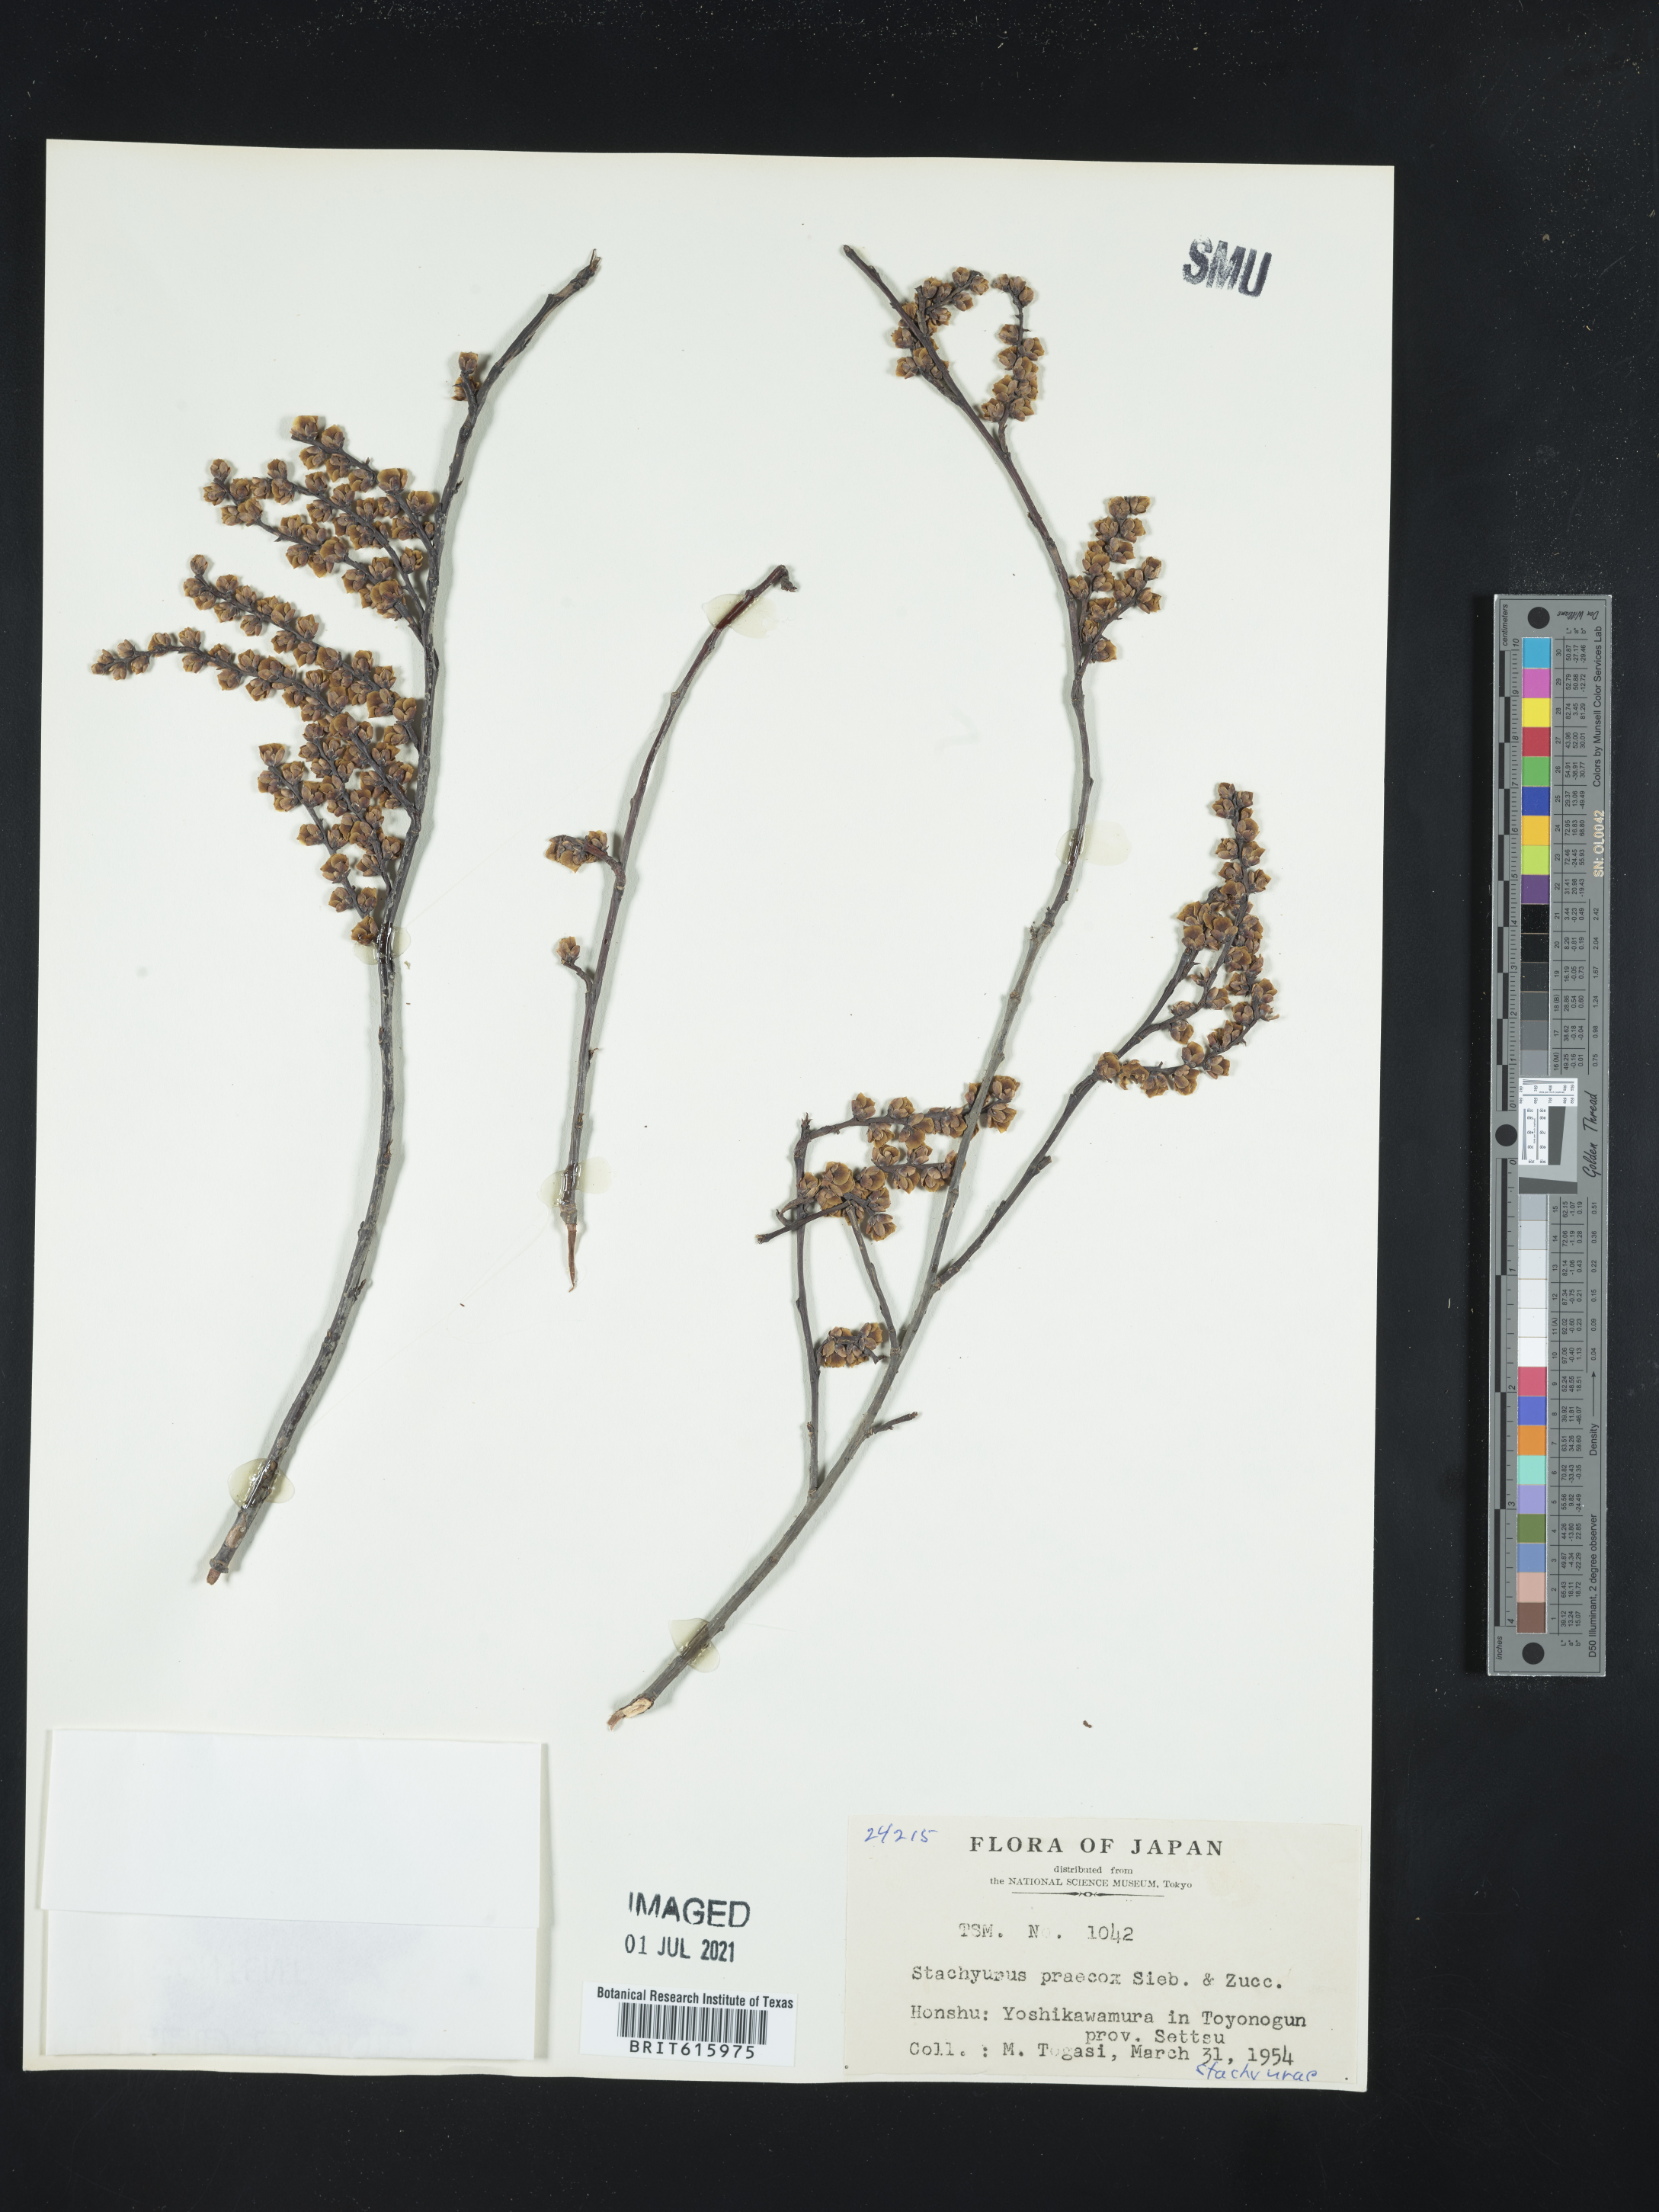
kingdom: Plantae
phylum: Tracheophyta
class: Magnoliopsida
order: Crossosomatales
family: Stachyuraceae
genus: Stachyurus
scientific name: Stachyurus praecox
